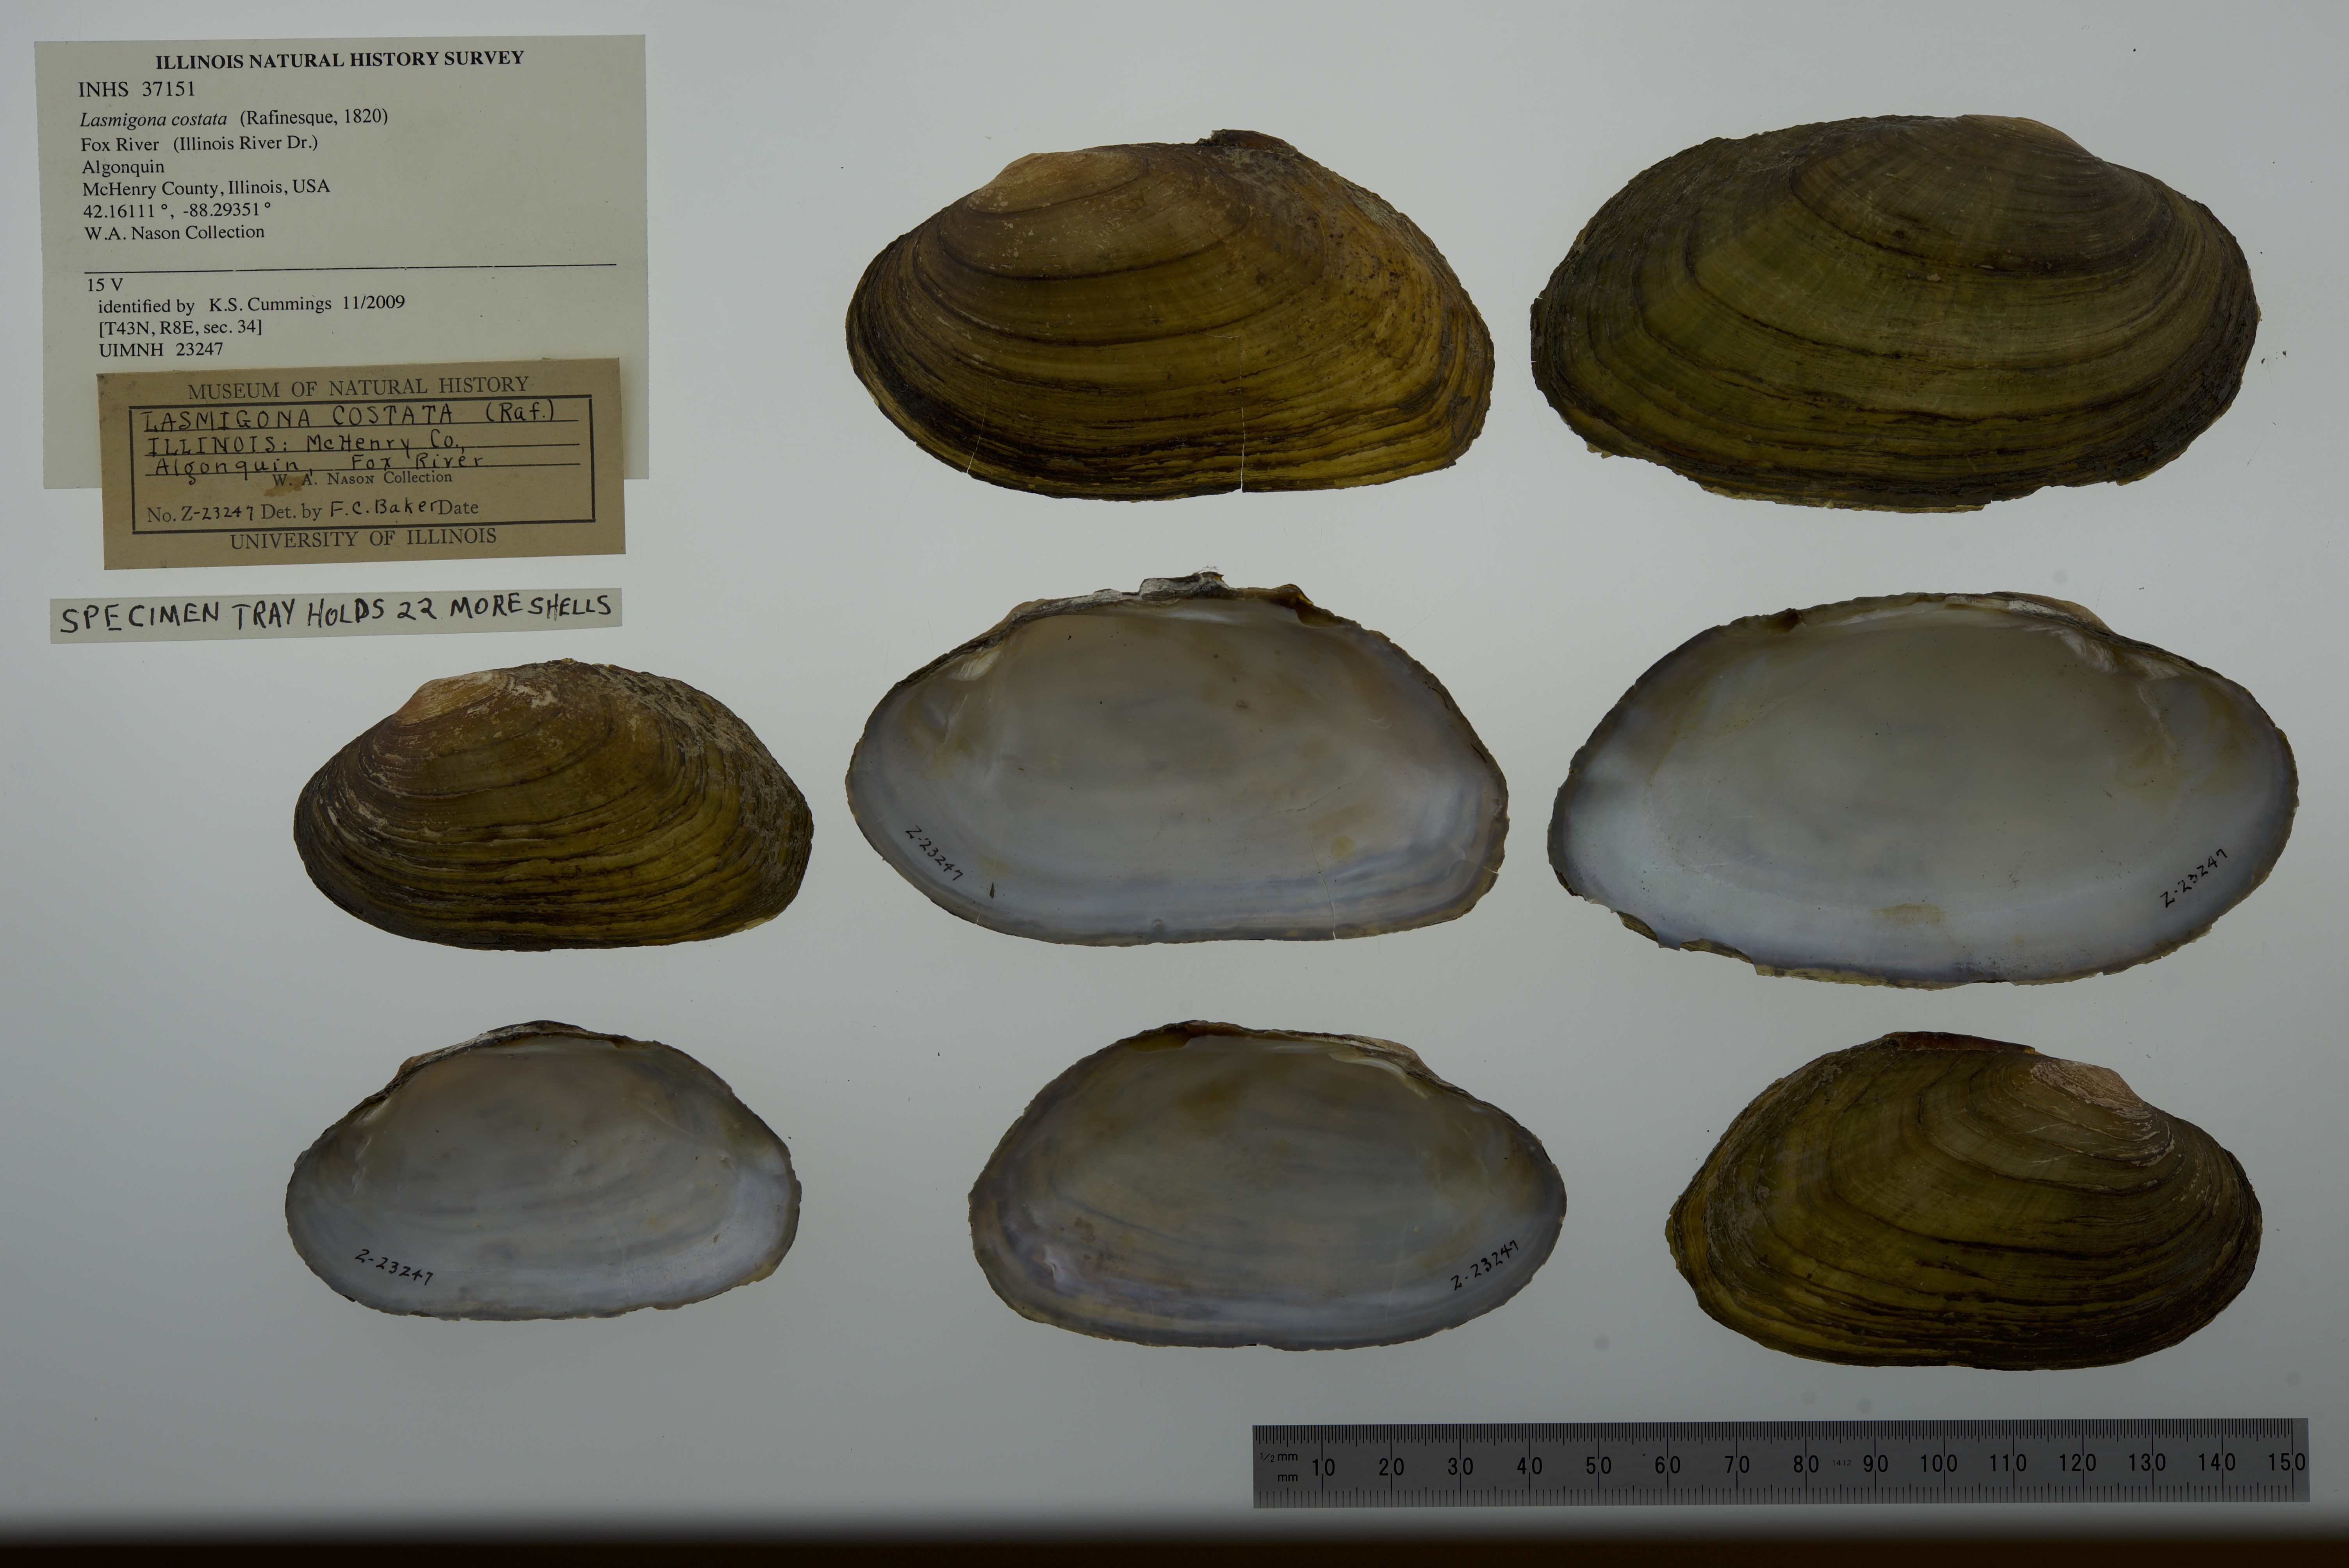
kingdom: Animalia
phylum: Mollusca
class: Bivalvia
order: Unionida
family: Unionidae
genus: Lasmigona
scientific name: Lasmigona costata
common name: Flutedshell
